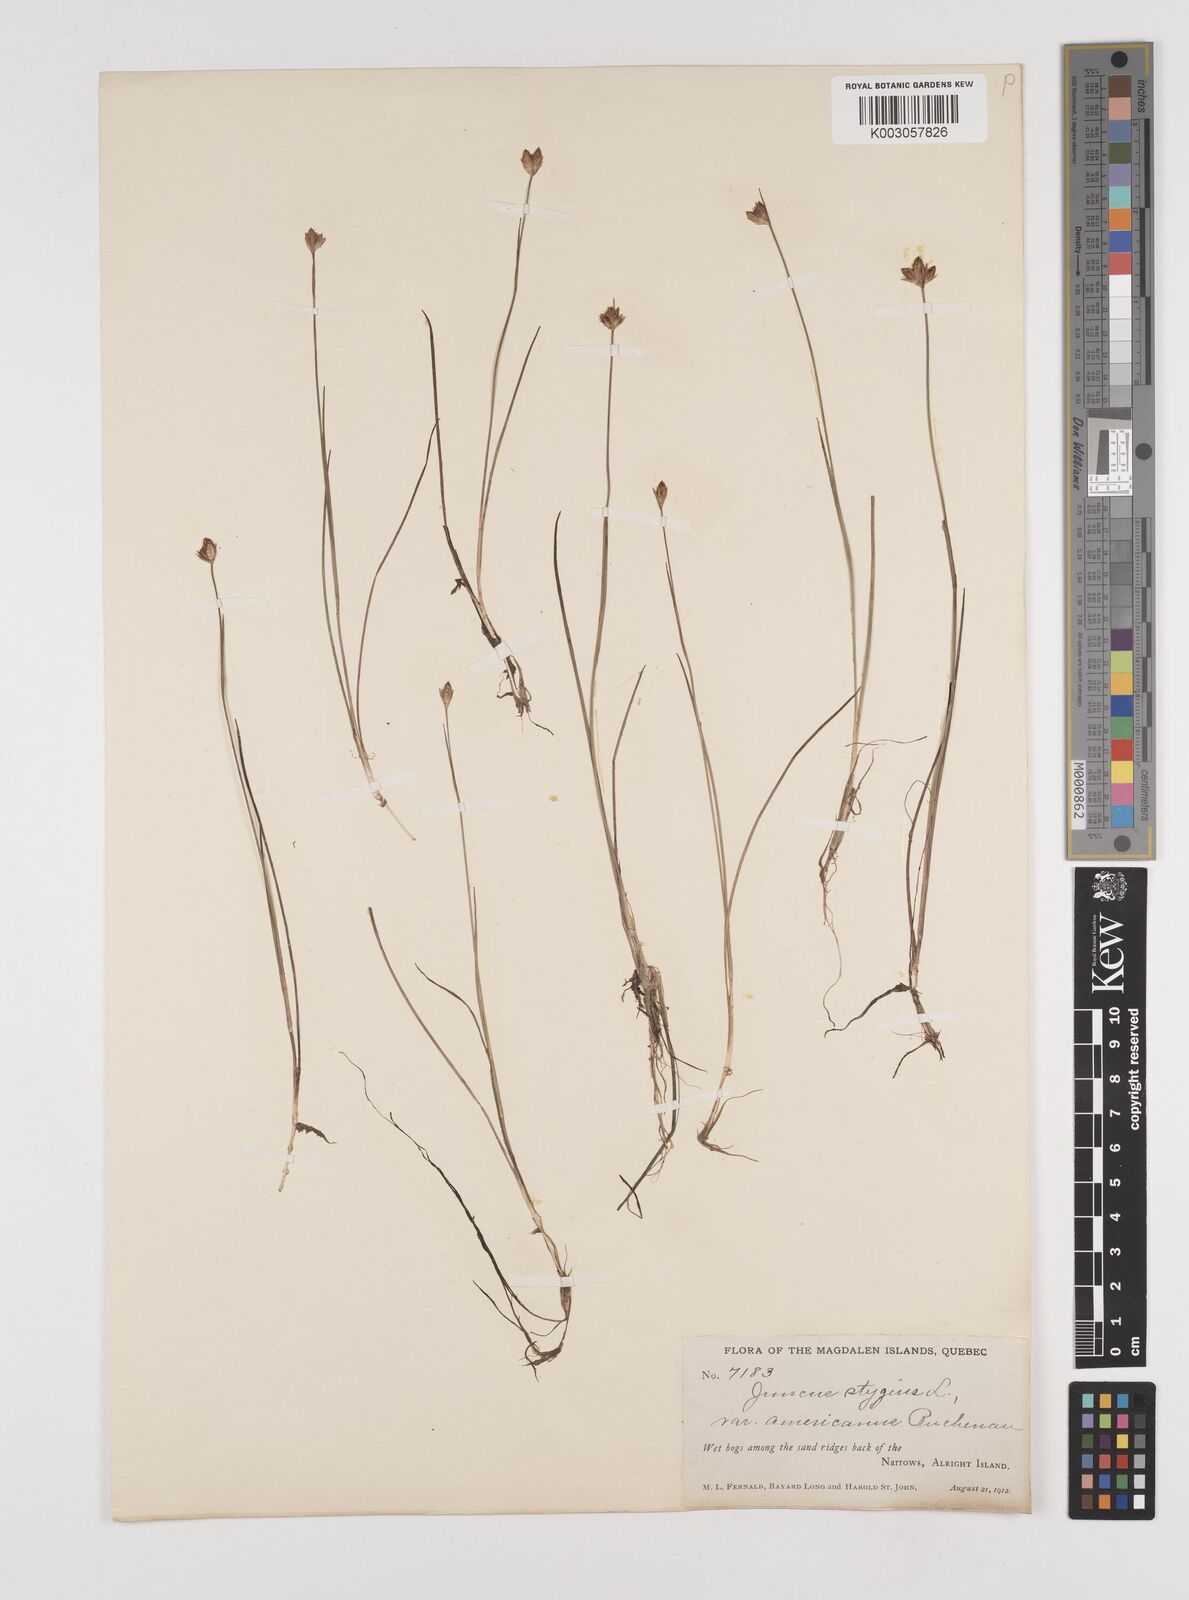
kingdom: Plantae
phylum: Tracheophyta
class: Liliopsida
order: Poales
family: Juncaceae
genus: Juncus
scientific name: Juncus stygius
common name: Bog rush
